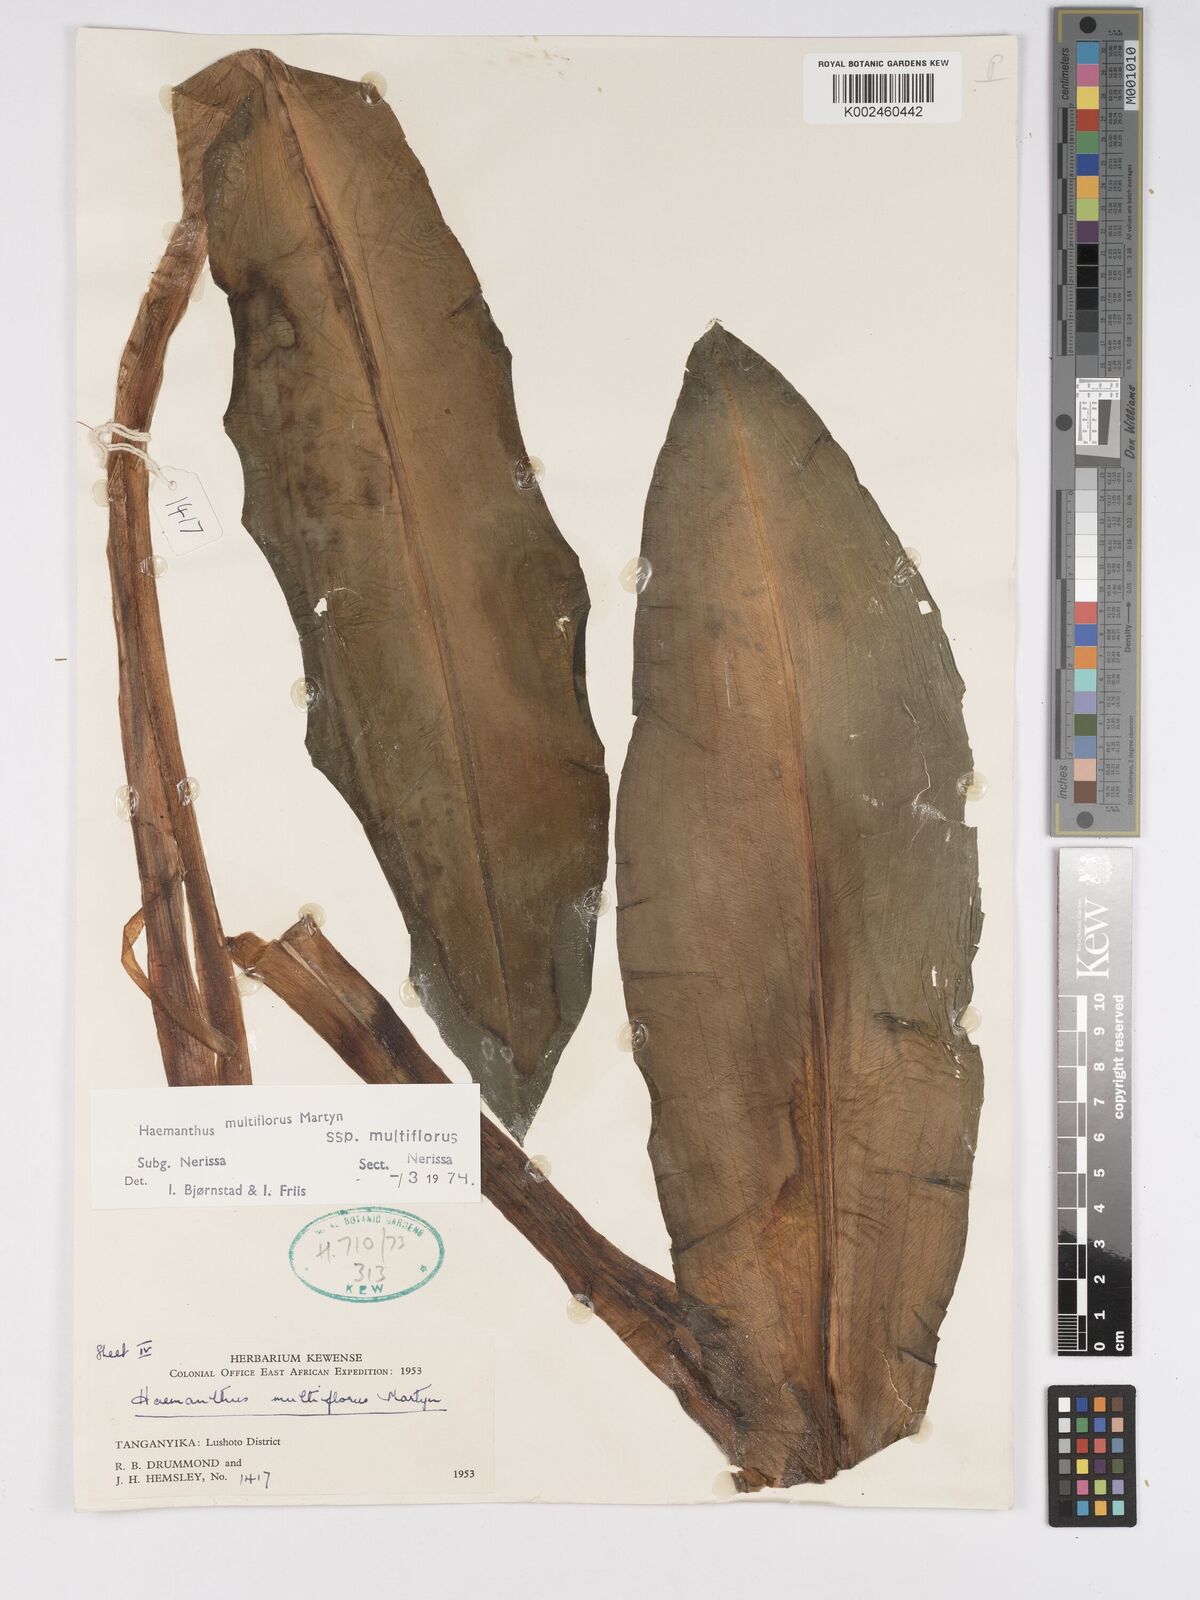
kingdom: Plantae
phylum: Tracheophyta
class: Liliopsida
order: Asparagales
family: Amaryllidaceae
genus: Scadoxus
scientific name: Scadoxus multiflorus
